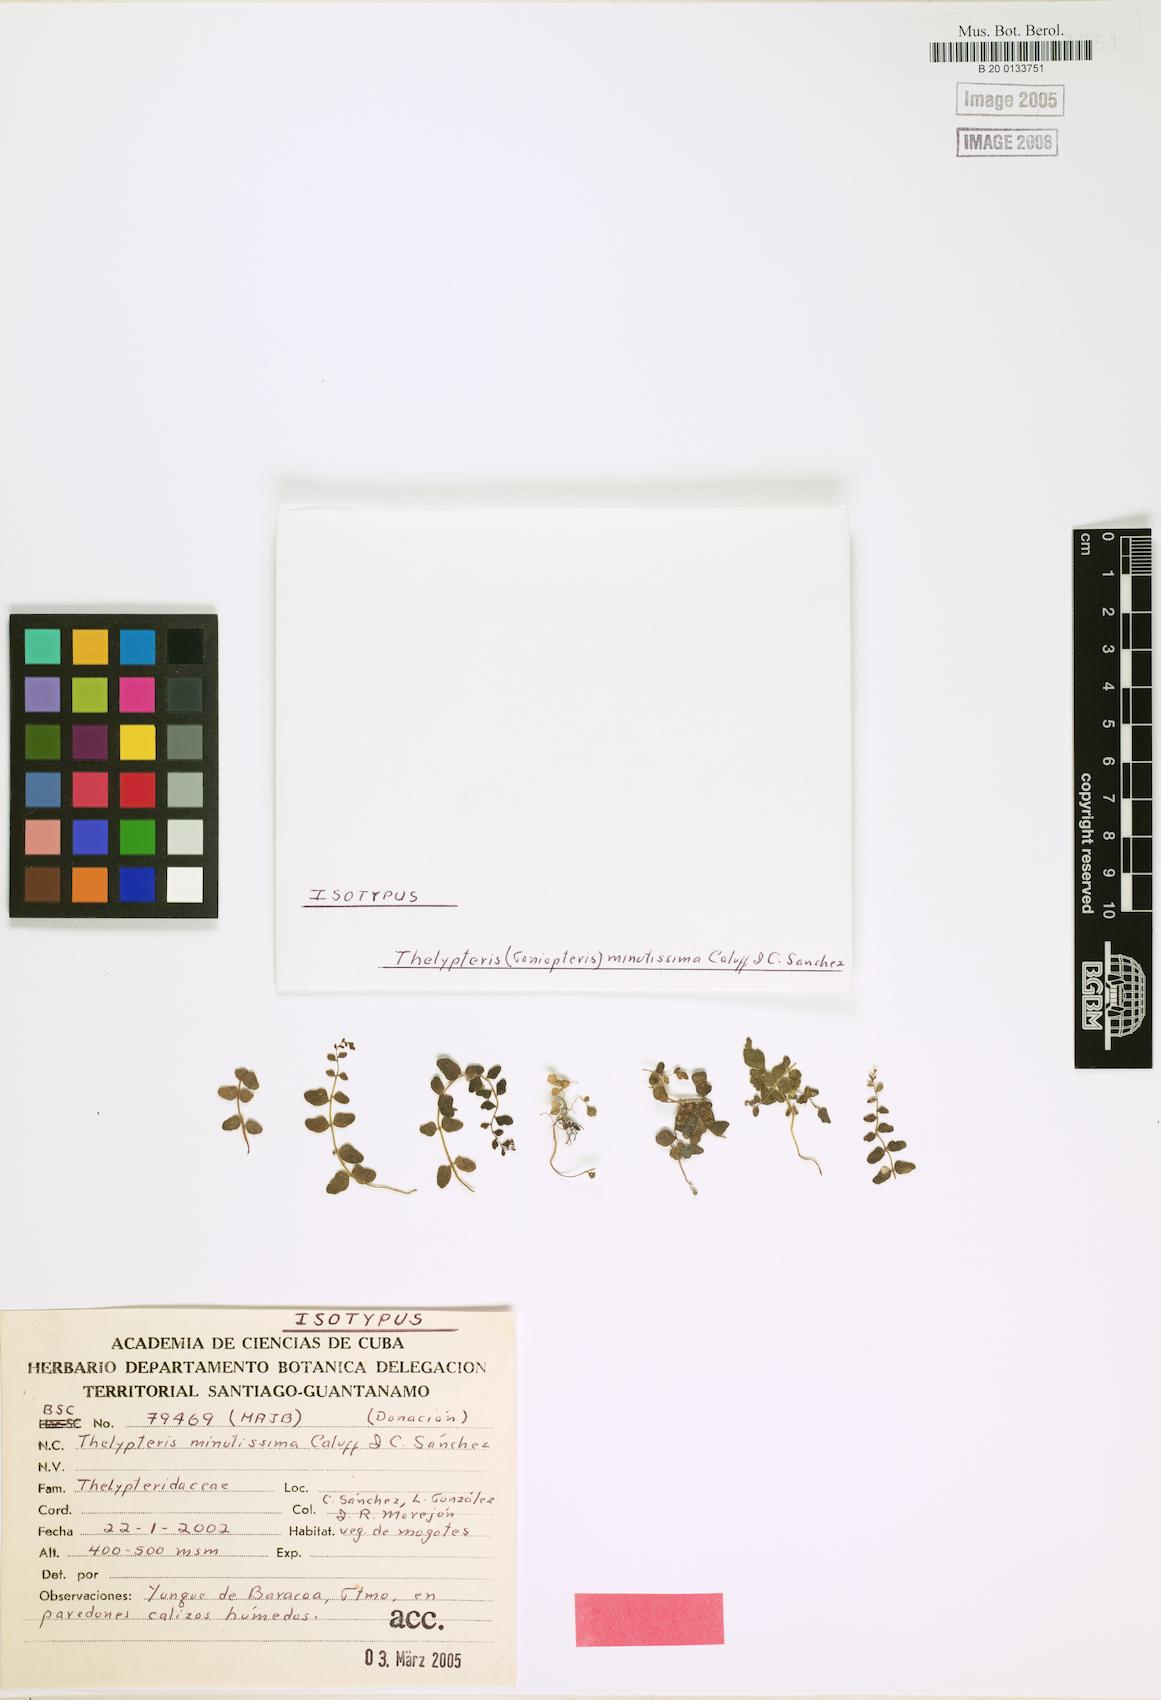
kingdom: Plantae
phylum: Tracheophyta
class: Polypodiopsida
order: Polypodiales
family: Thelypteridaceae
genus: Goniopteris
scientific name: Goniopteris minutissima
